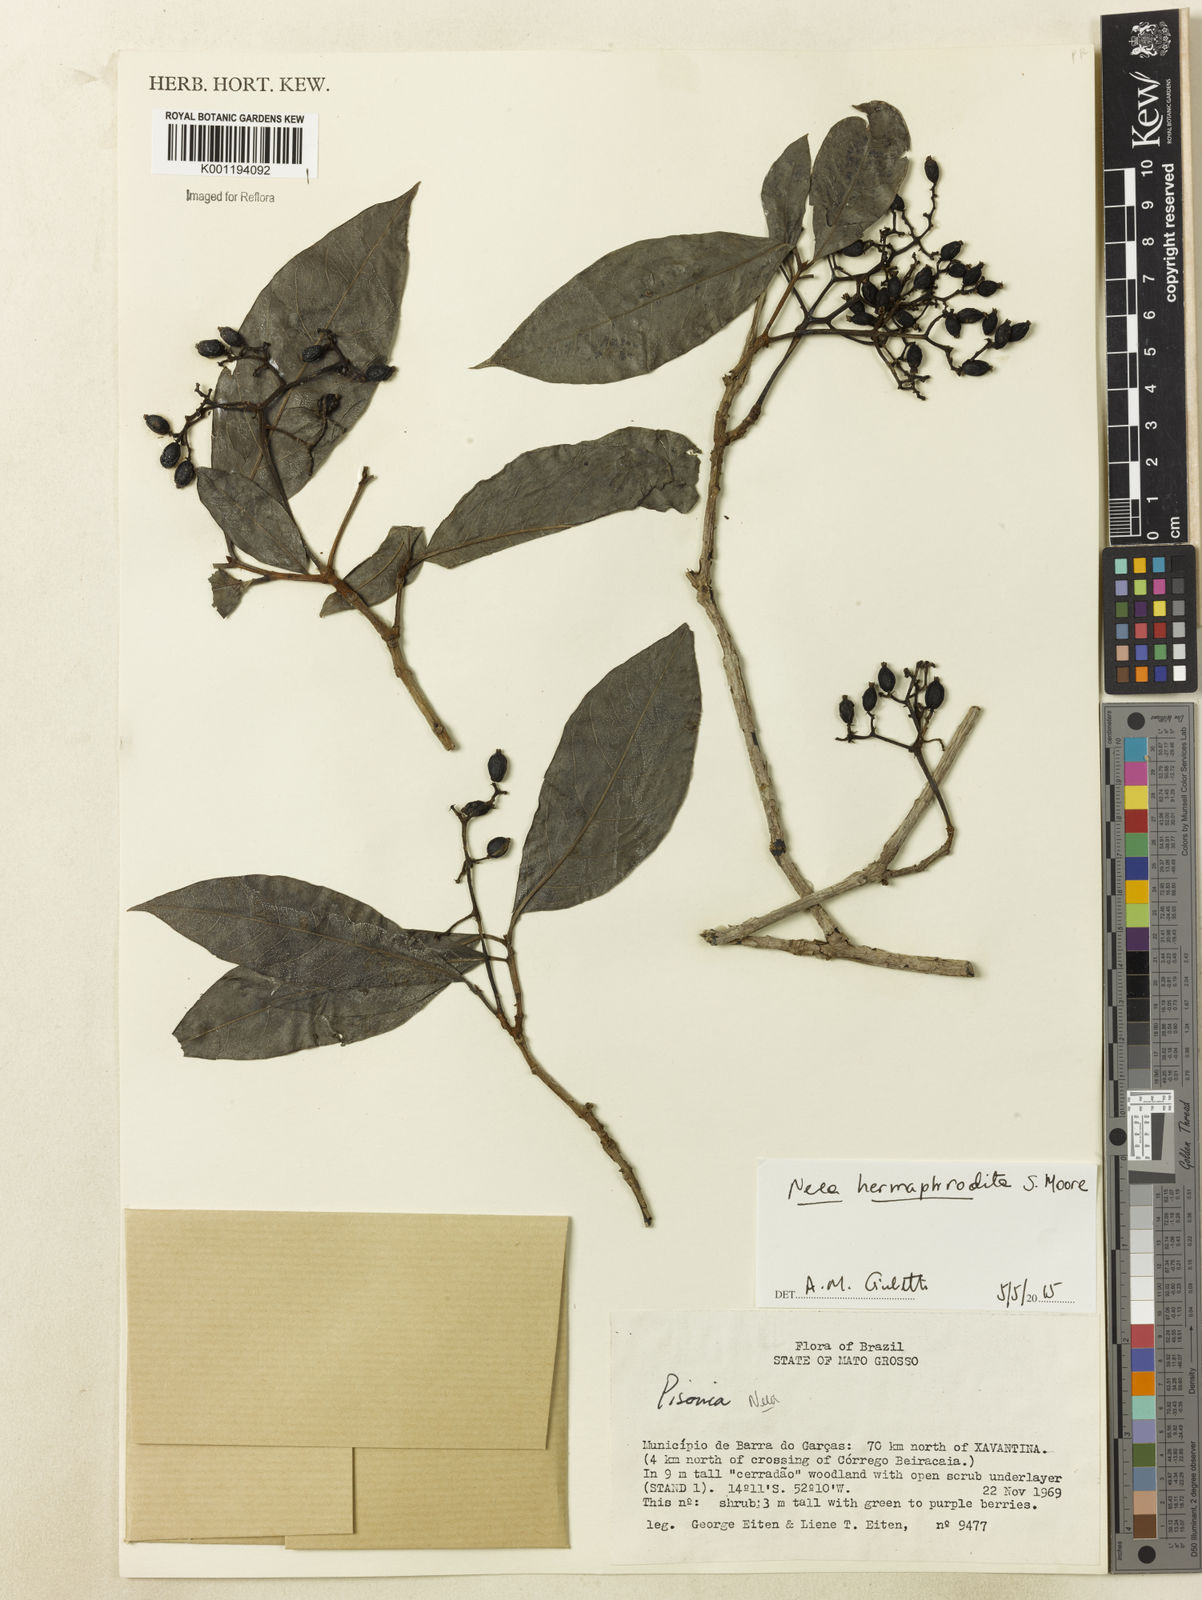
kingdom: Plantae
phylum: Tracheophyta
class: Magnoliopsida
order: Caryophyllales
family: Nyctaginaceae
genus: Guapira
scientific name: Guapira venosa
